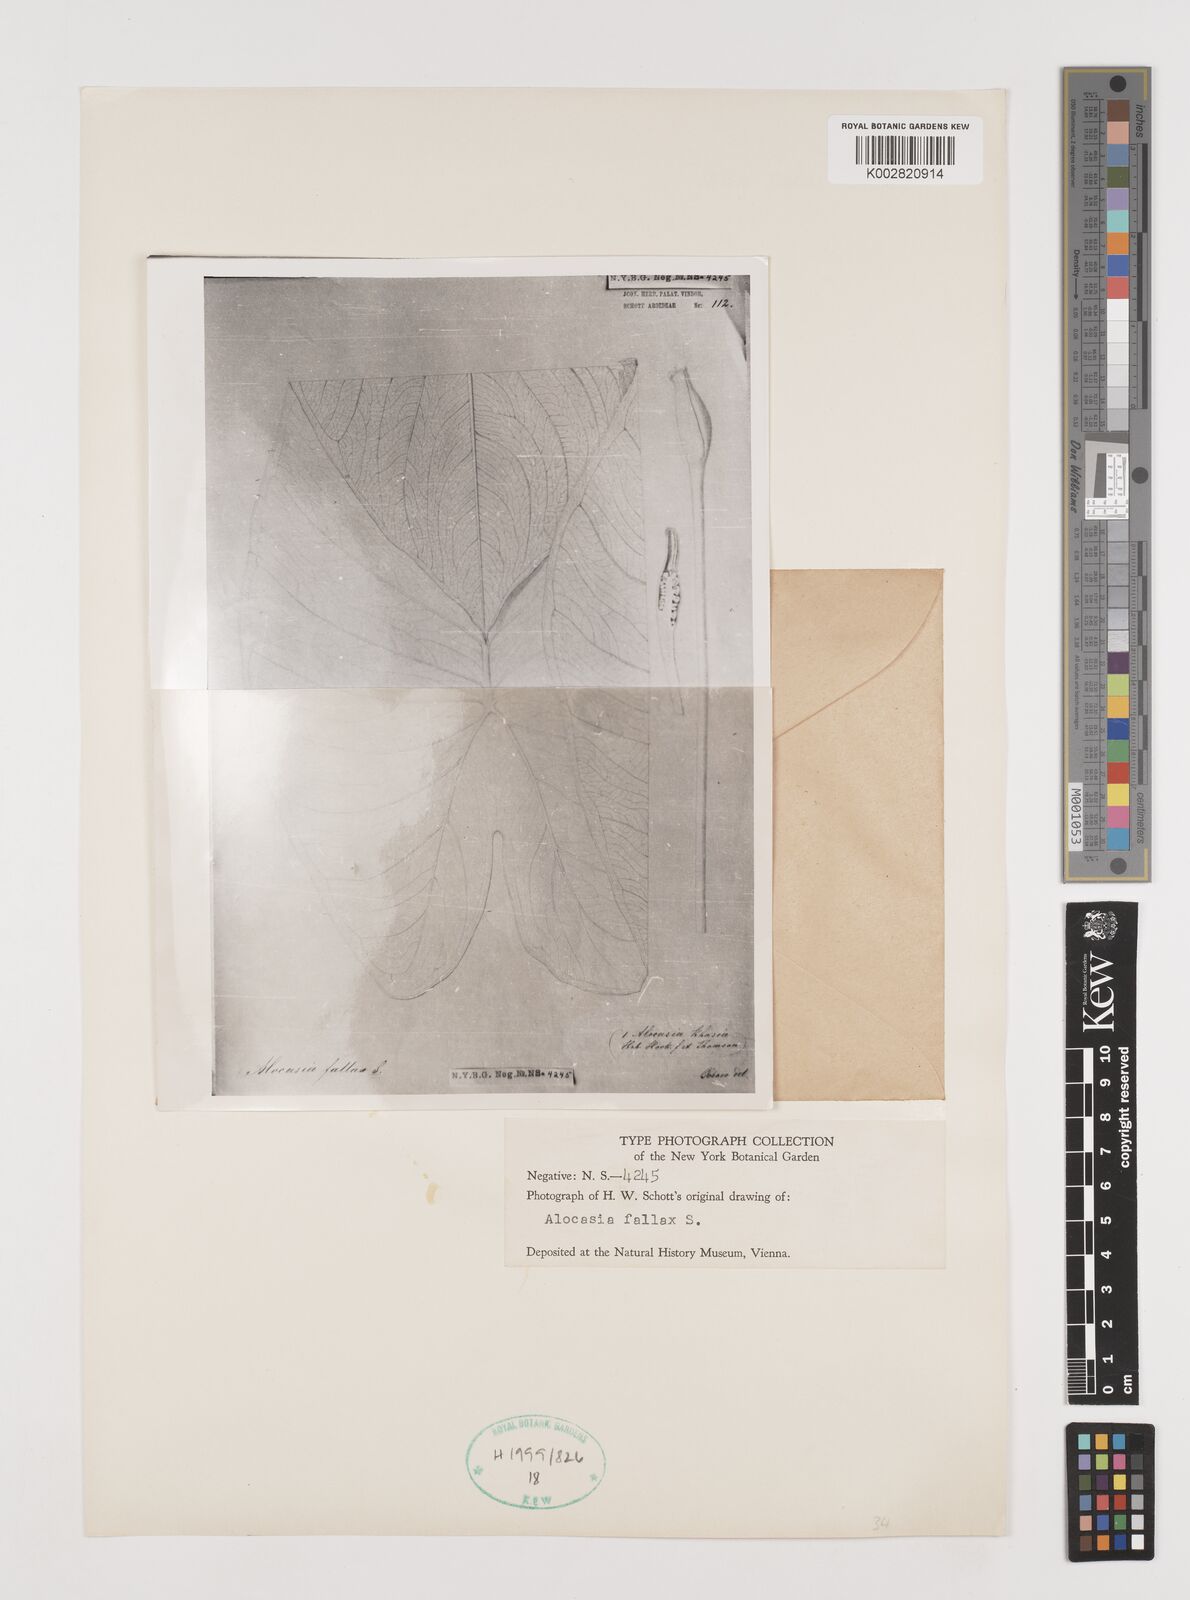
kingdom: Plantae
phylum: Tracheophyta
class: Liliopsida
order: Alismatales
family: Araceae
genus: Alocasia
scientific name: Alocasia fallax
